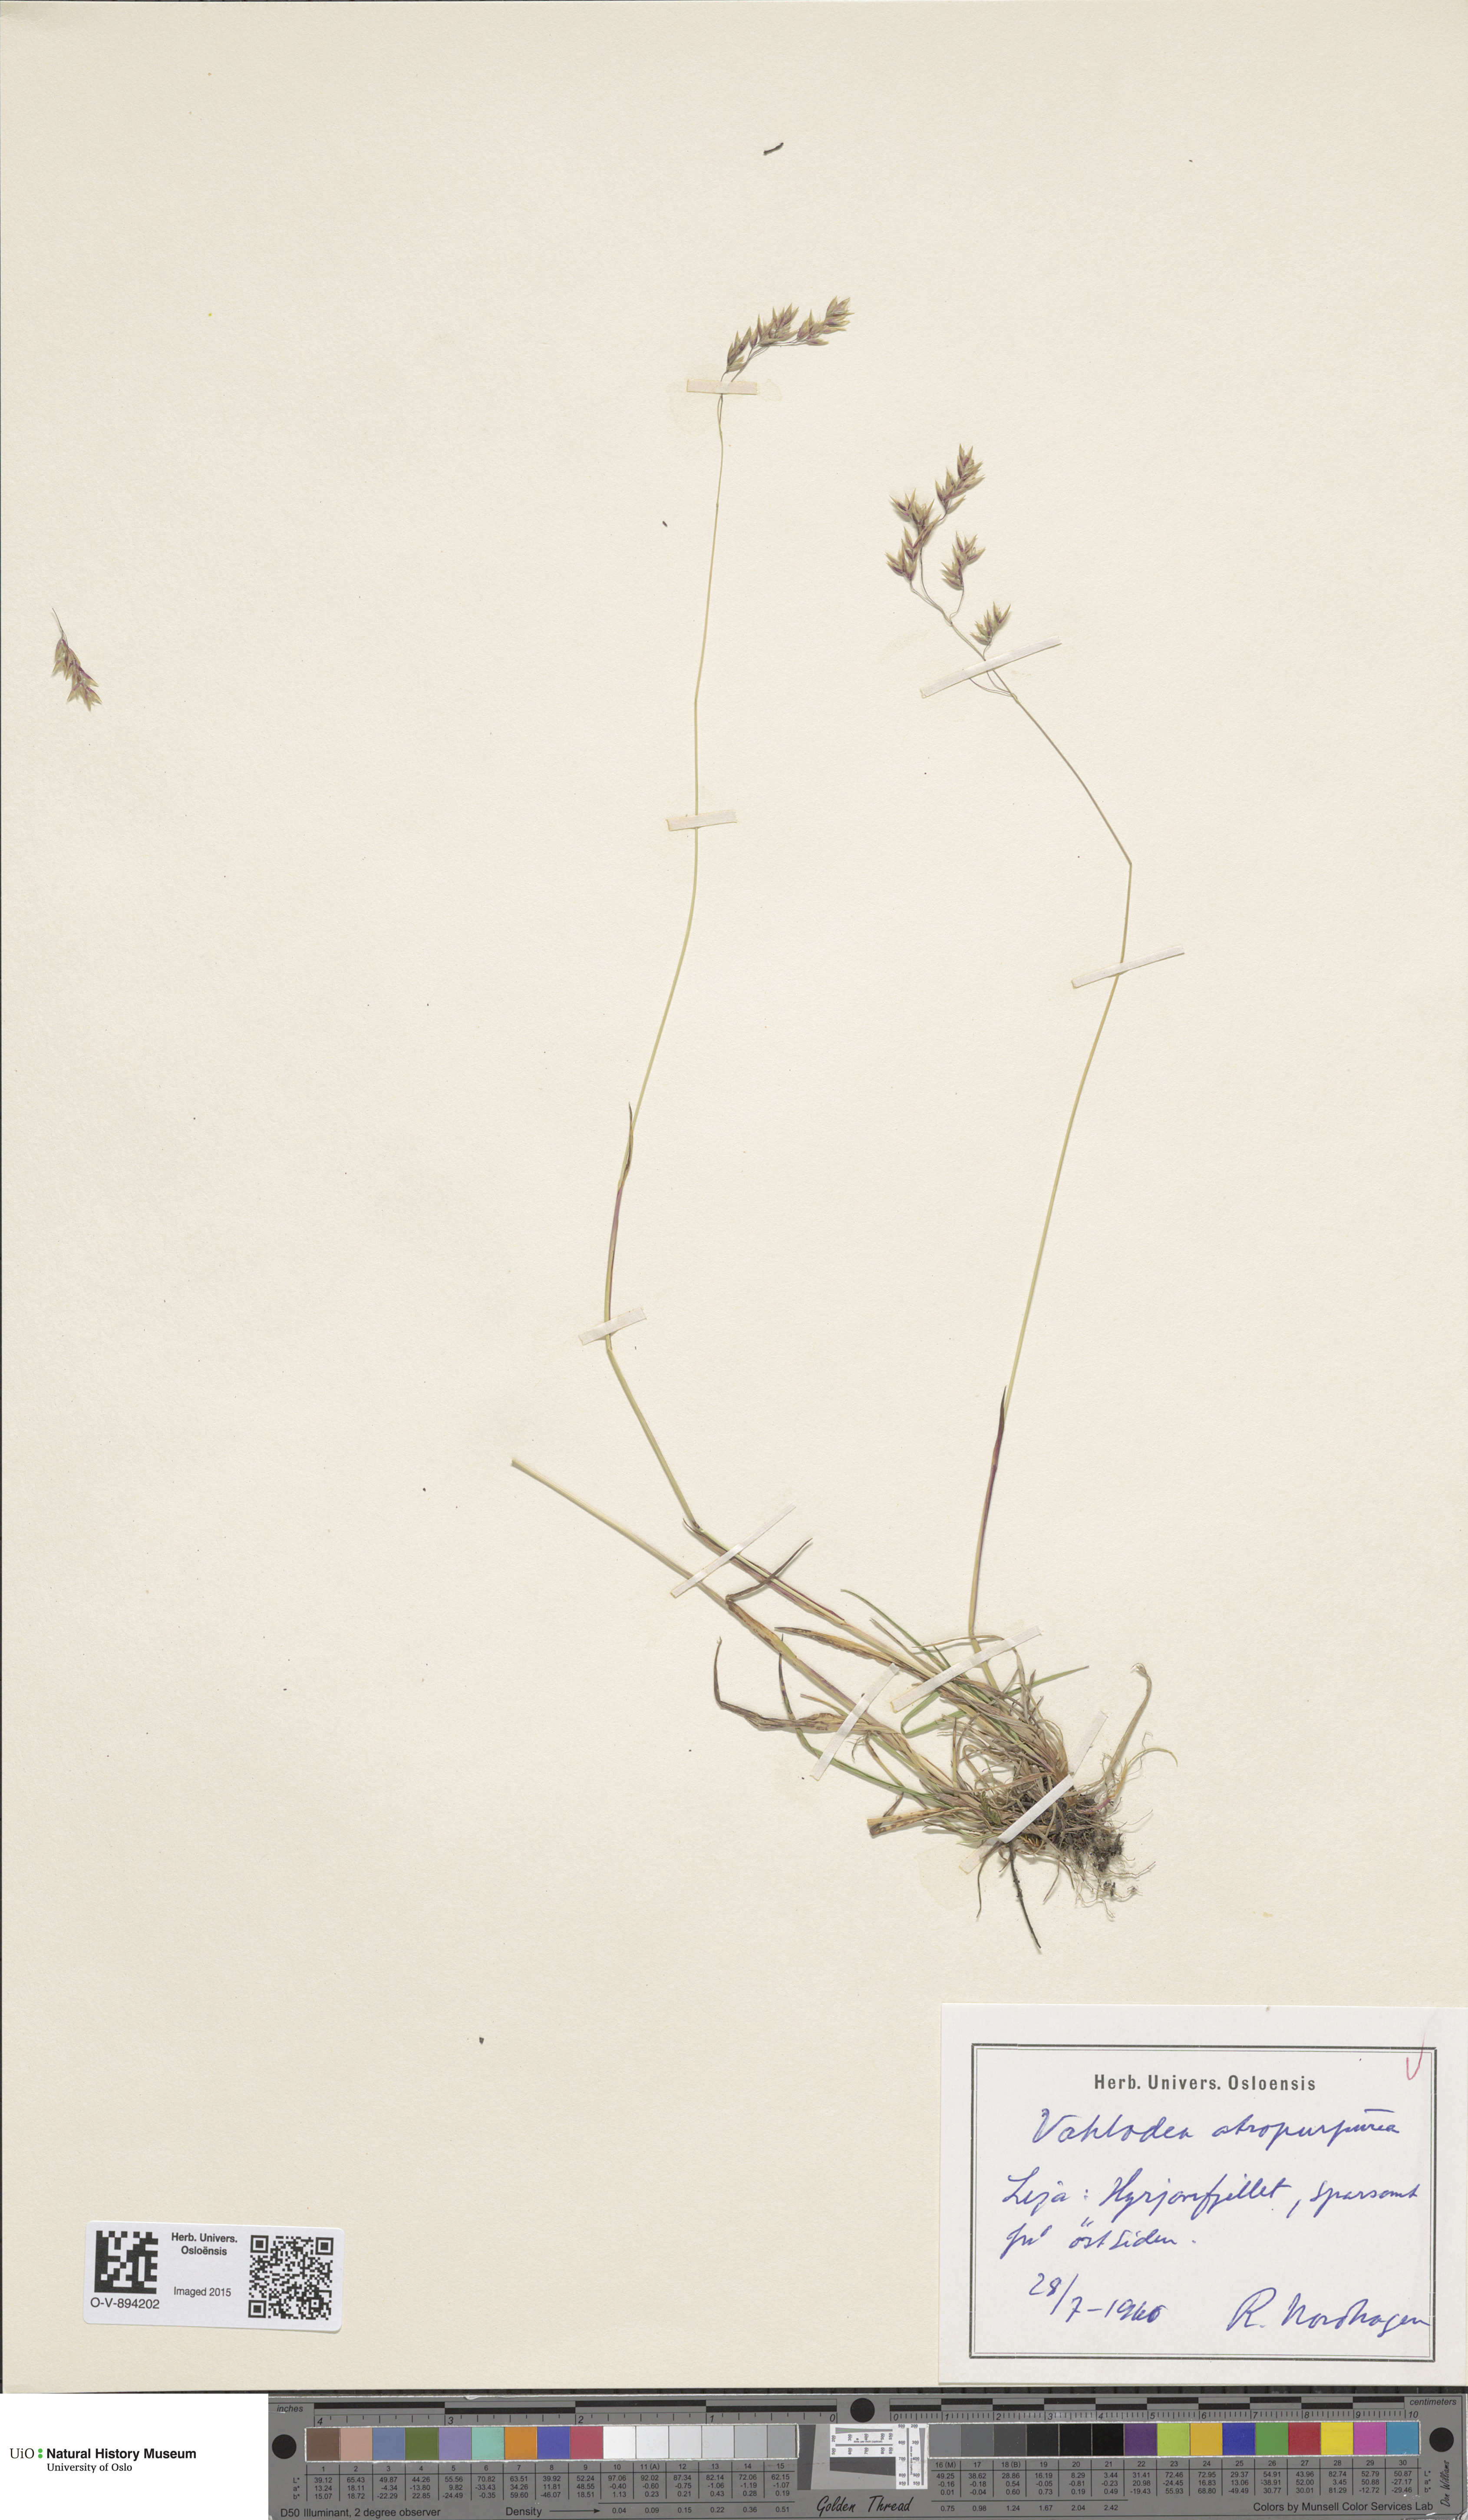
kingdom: Plantae
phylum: Tracheophyta
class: Liliopsida
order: Poales
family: Poaceae
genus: Vahlodea
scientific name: Vahlodea atropurpurea
